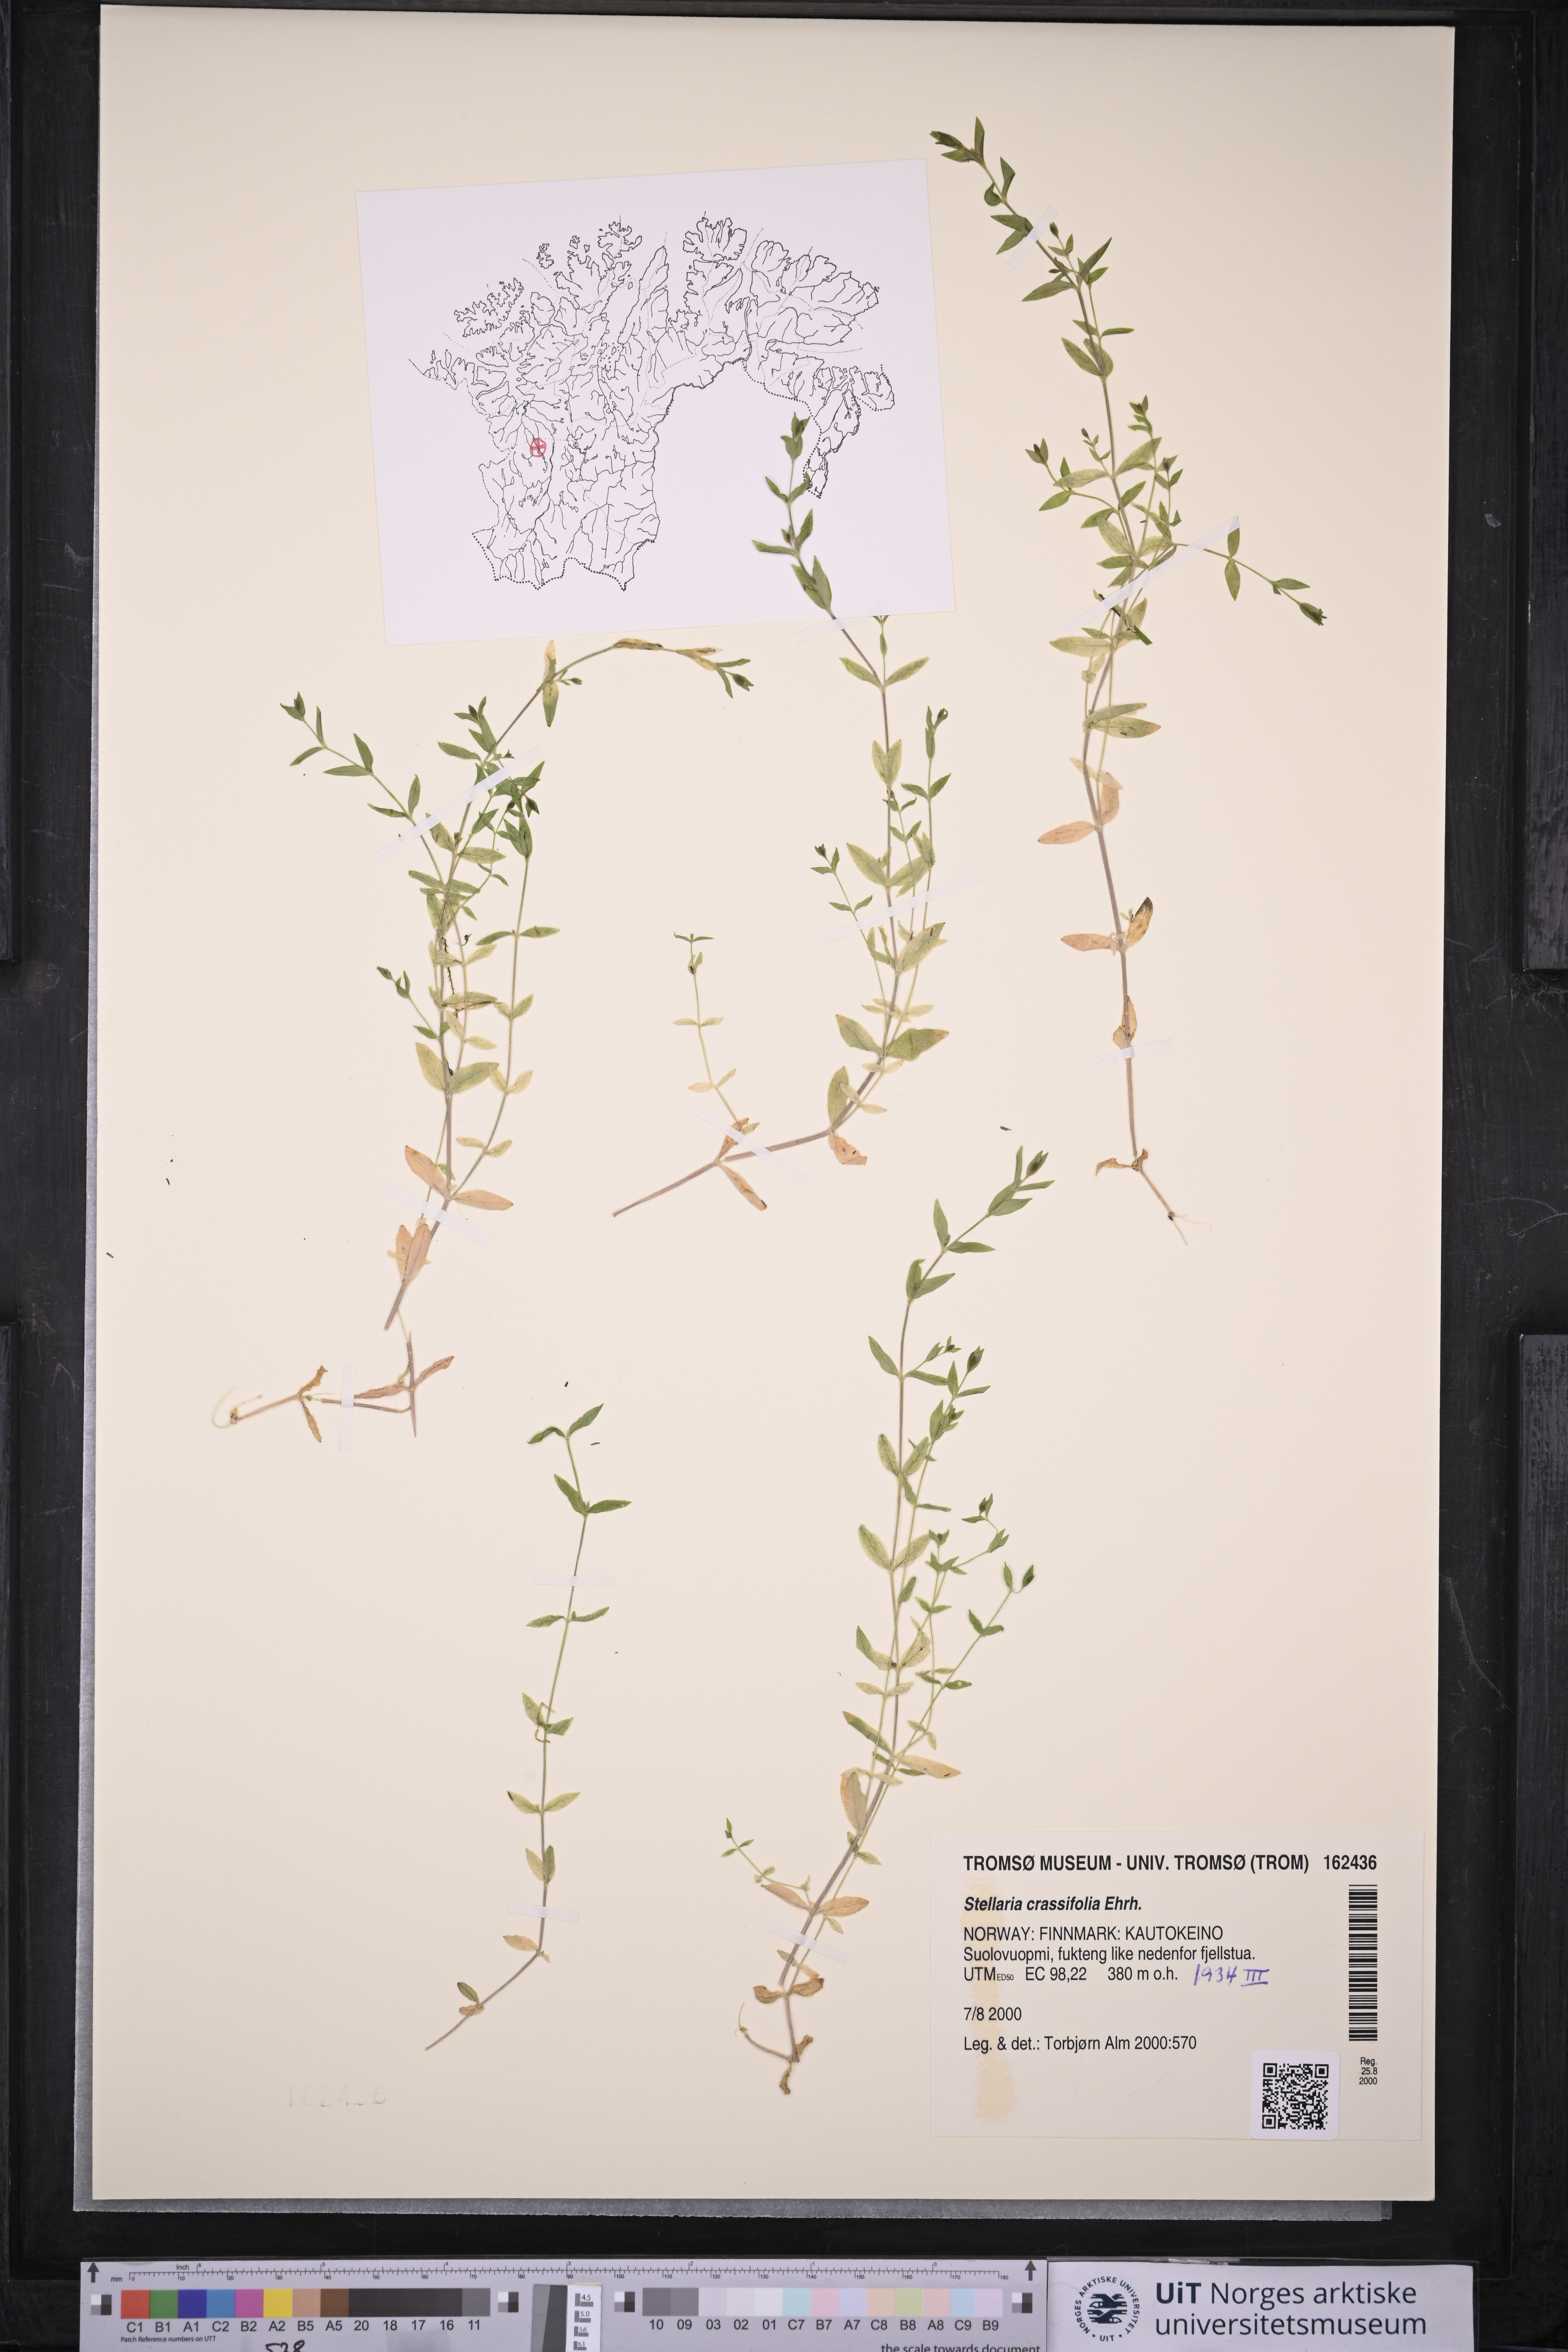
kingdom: Plantae
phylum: Tracheophyta
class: Magnoliopsida
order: Caryophyllales
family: Caryophyllaceae
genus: Stellaria
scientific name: Stellaria crassifolia
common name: Fleshy starwort
